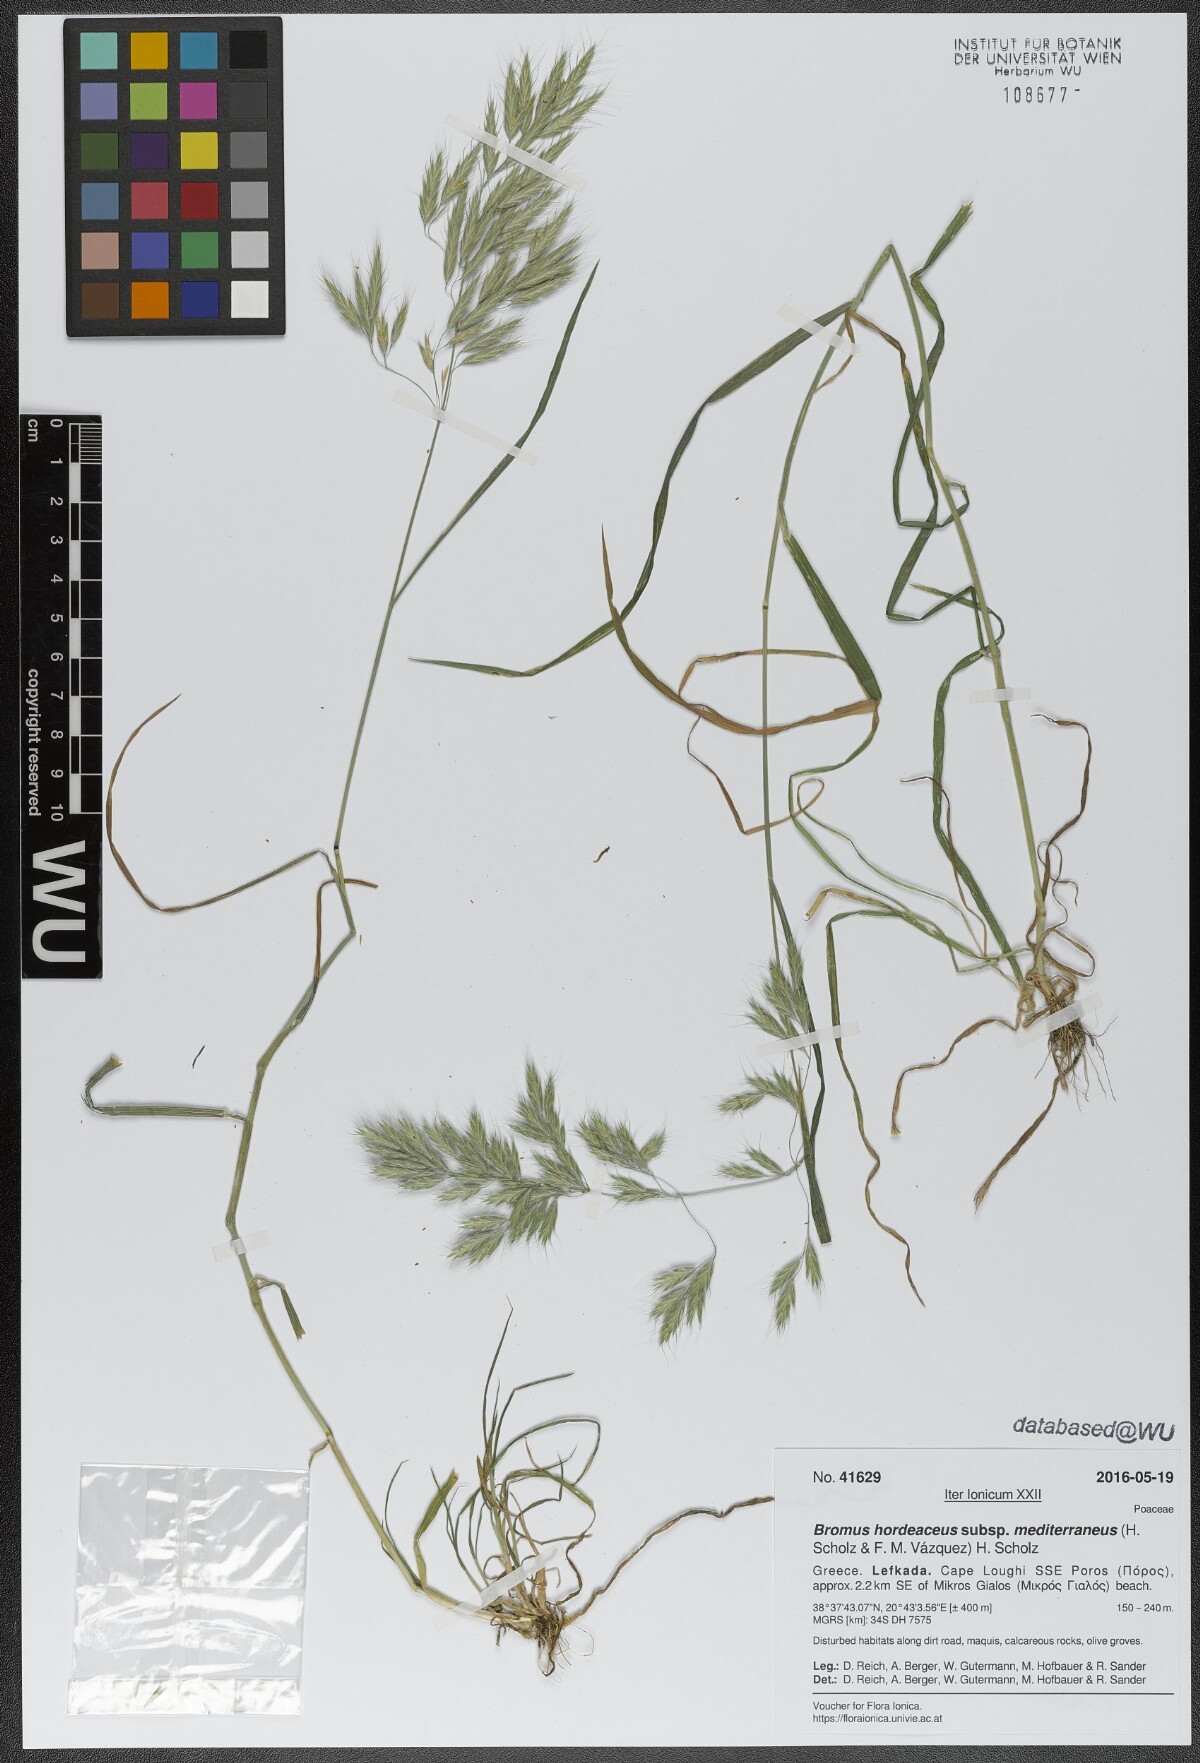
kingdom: Plantae
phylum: Tracheophyta
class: Liliopsida
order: Poales
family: Poaceae
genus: Bromus
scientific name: Bromus hordeaceus
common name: Soft brome
